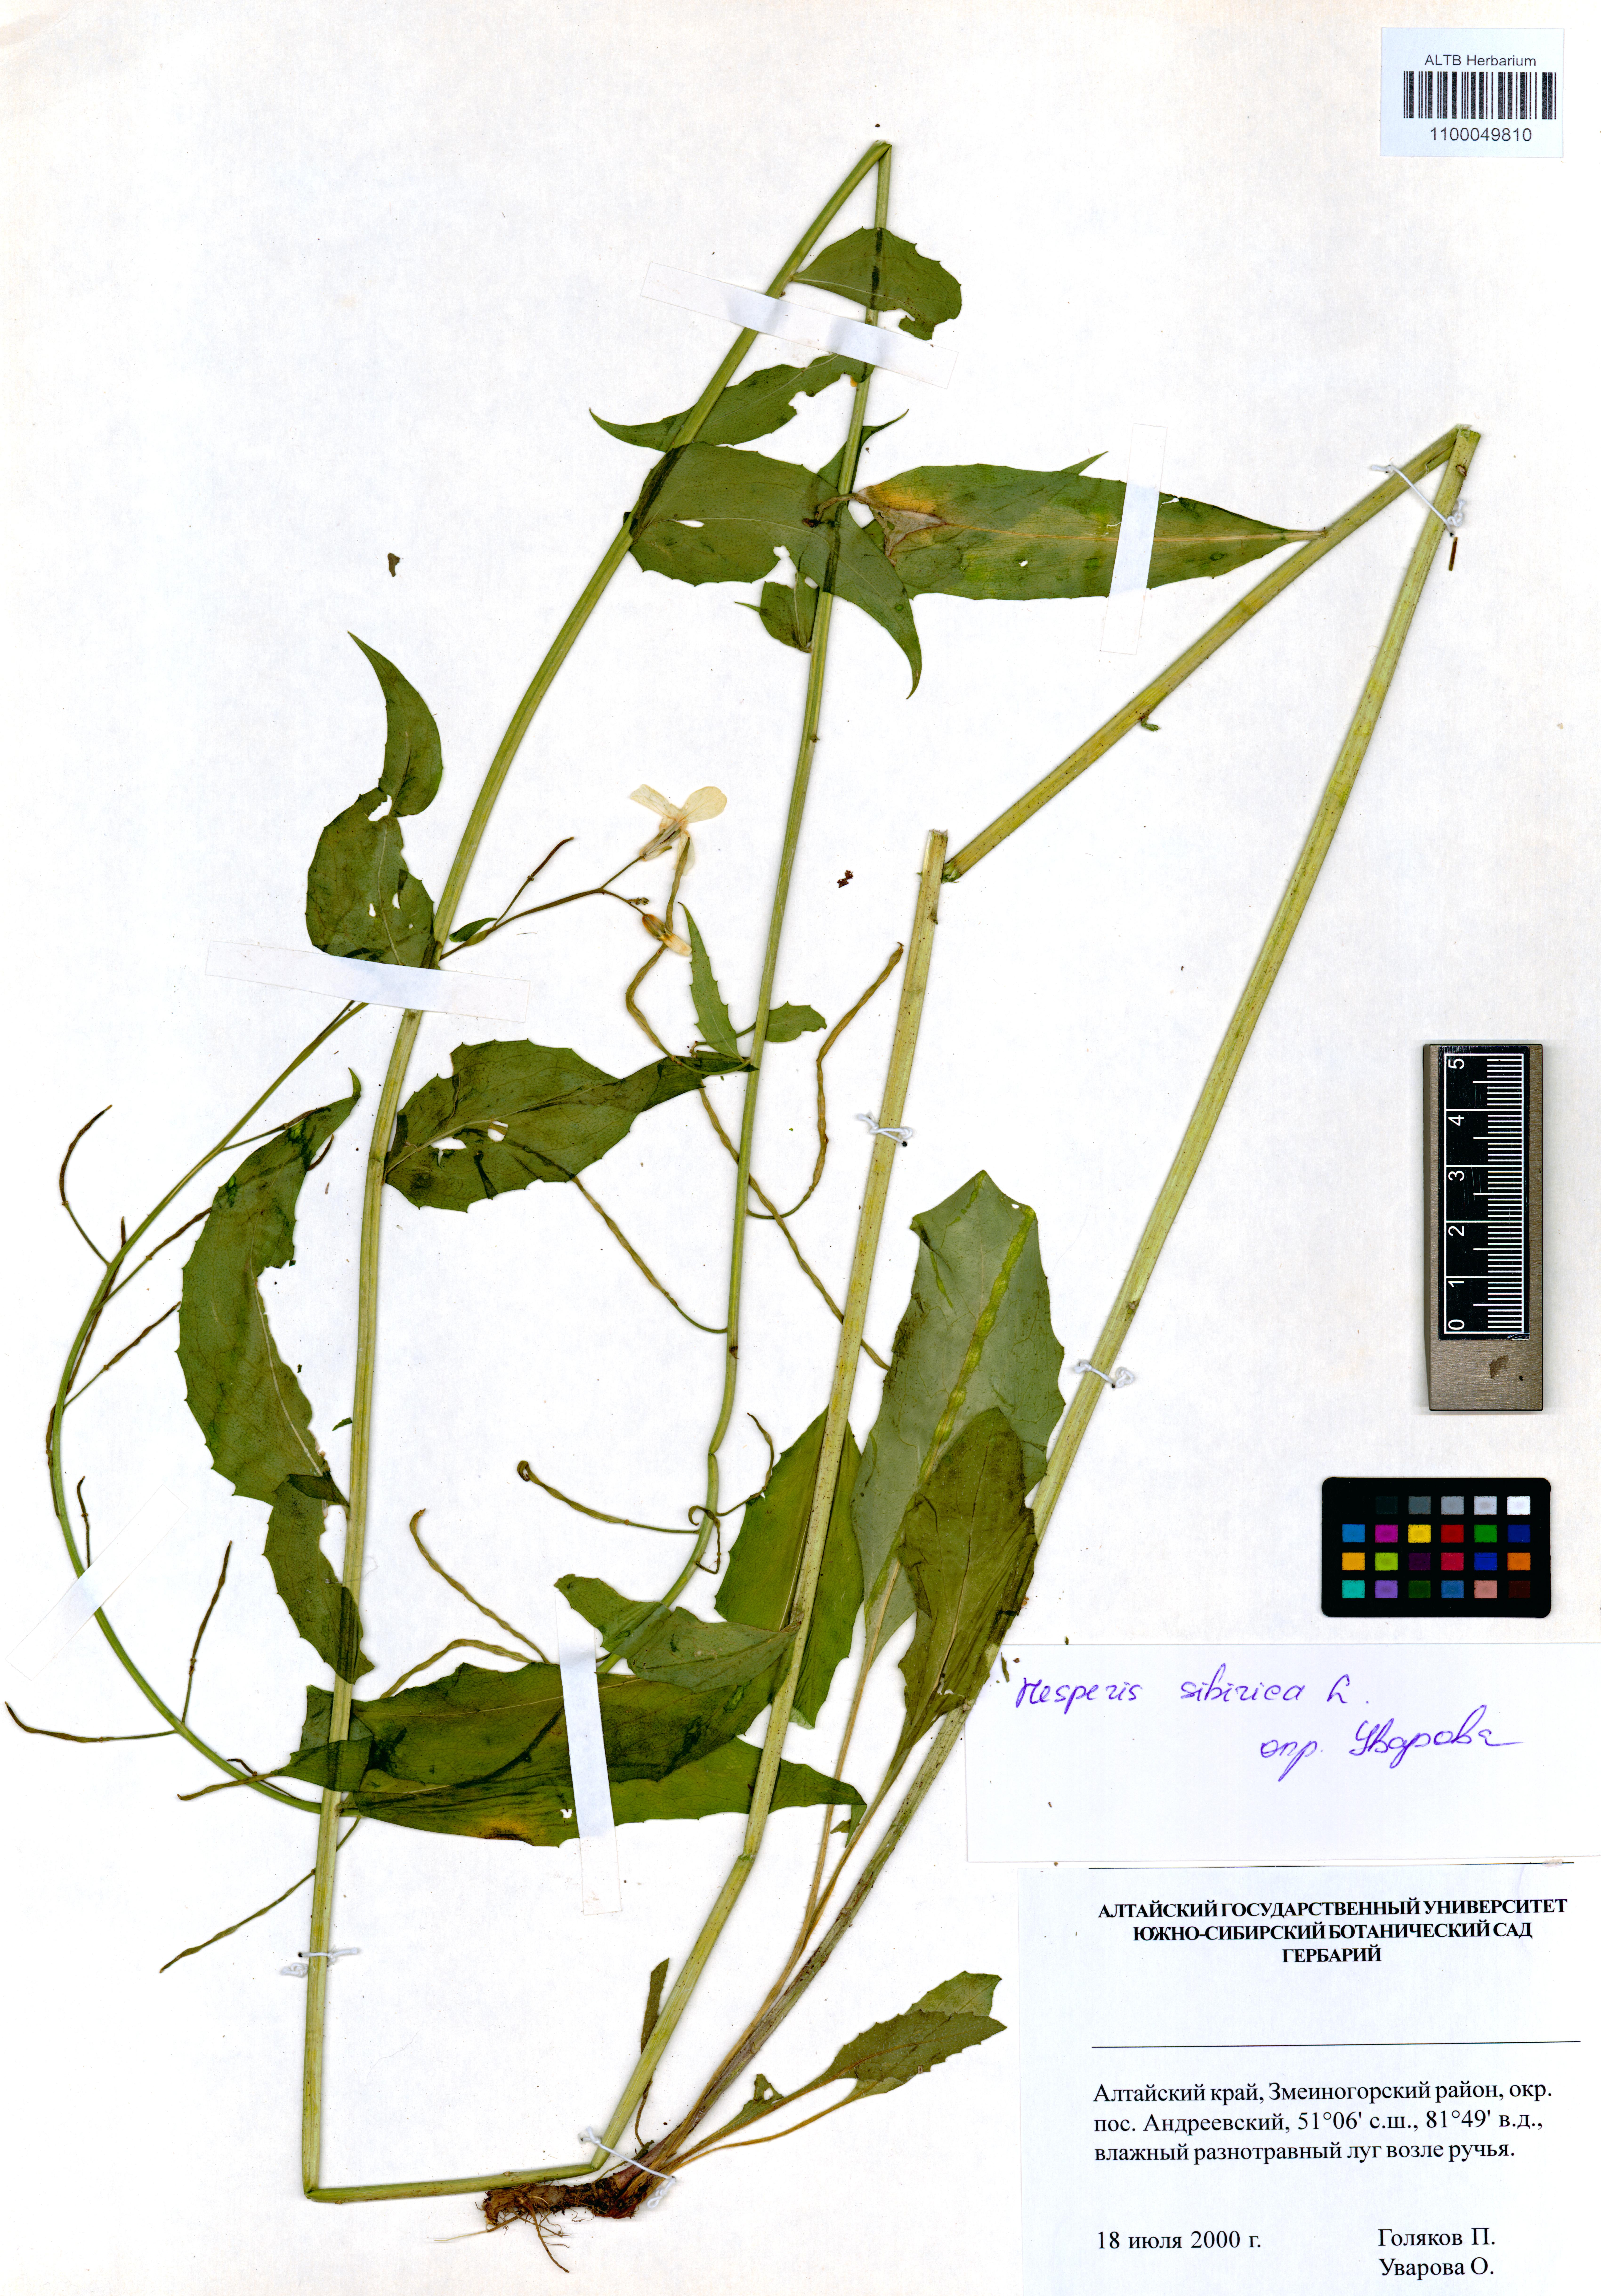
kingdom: Plantae
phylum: Tracheophyta
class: Magnoliopsida
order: Brassicales
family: Brassicaceae
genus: Hesperis
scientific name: Hesperis sibirica
